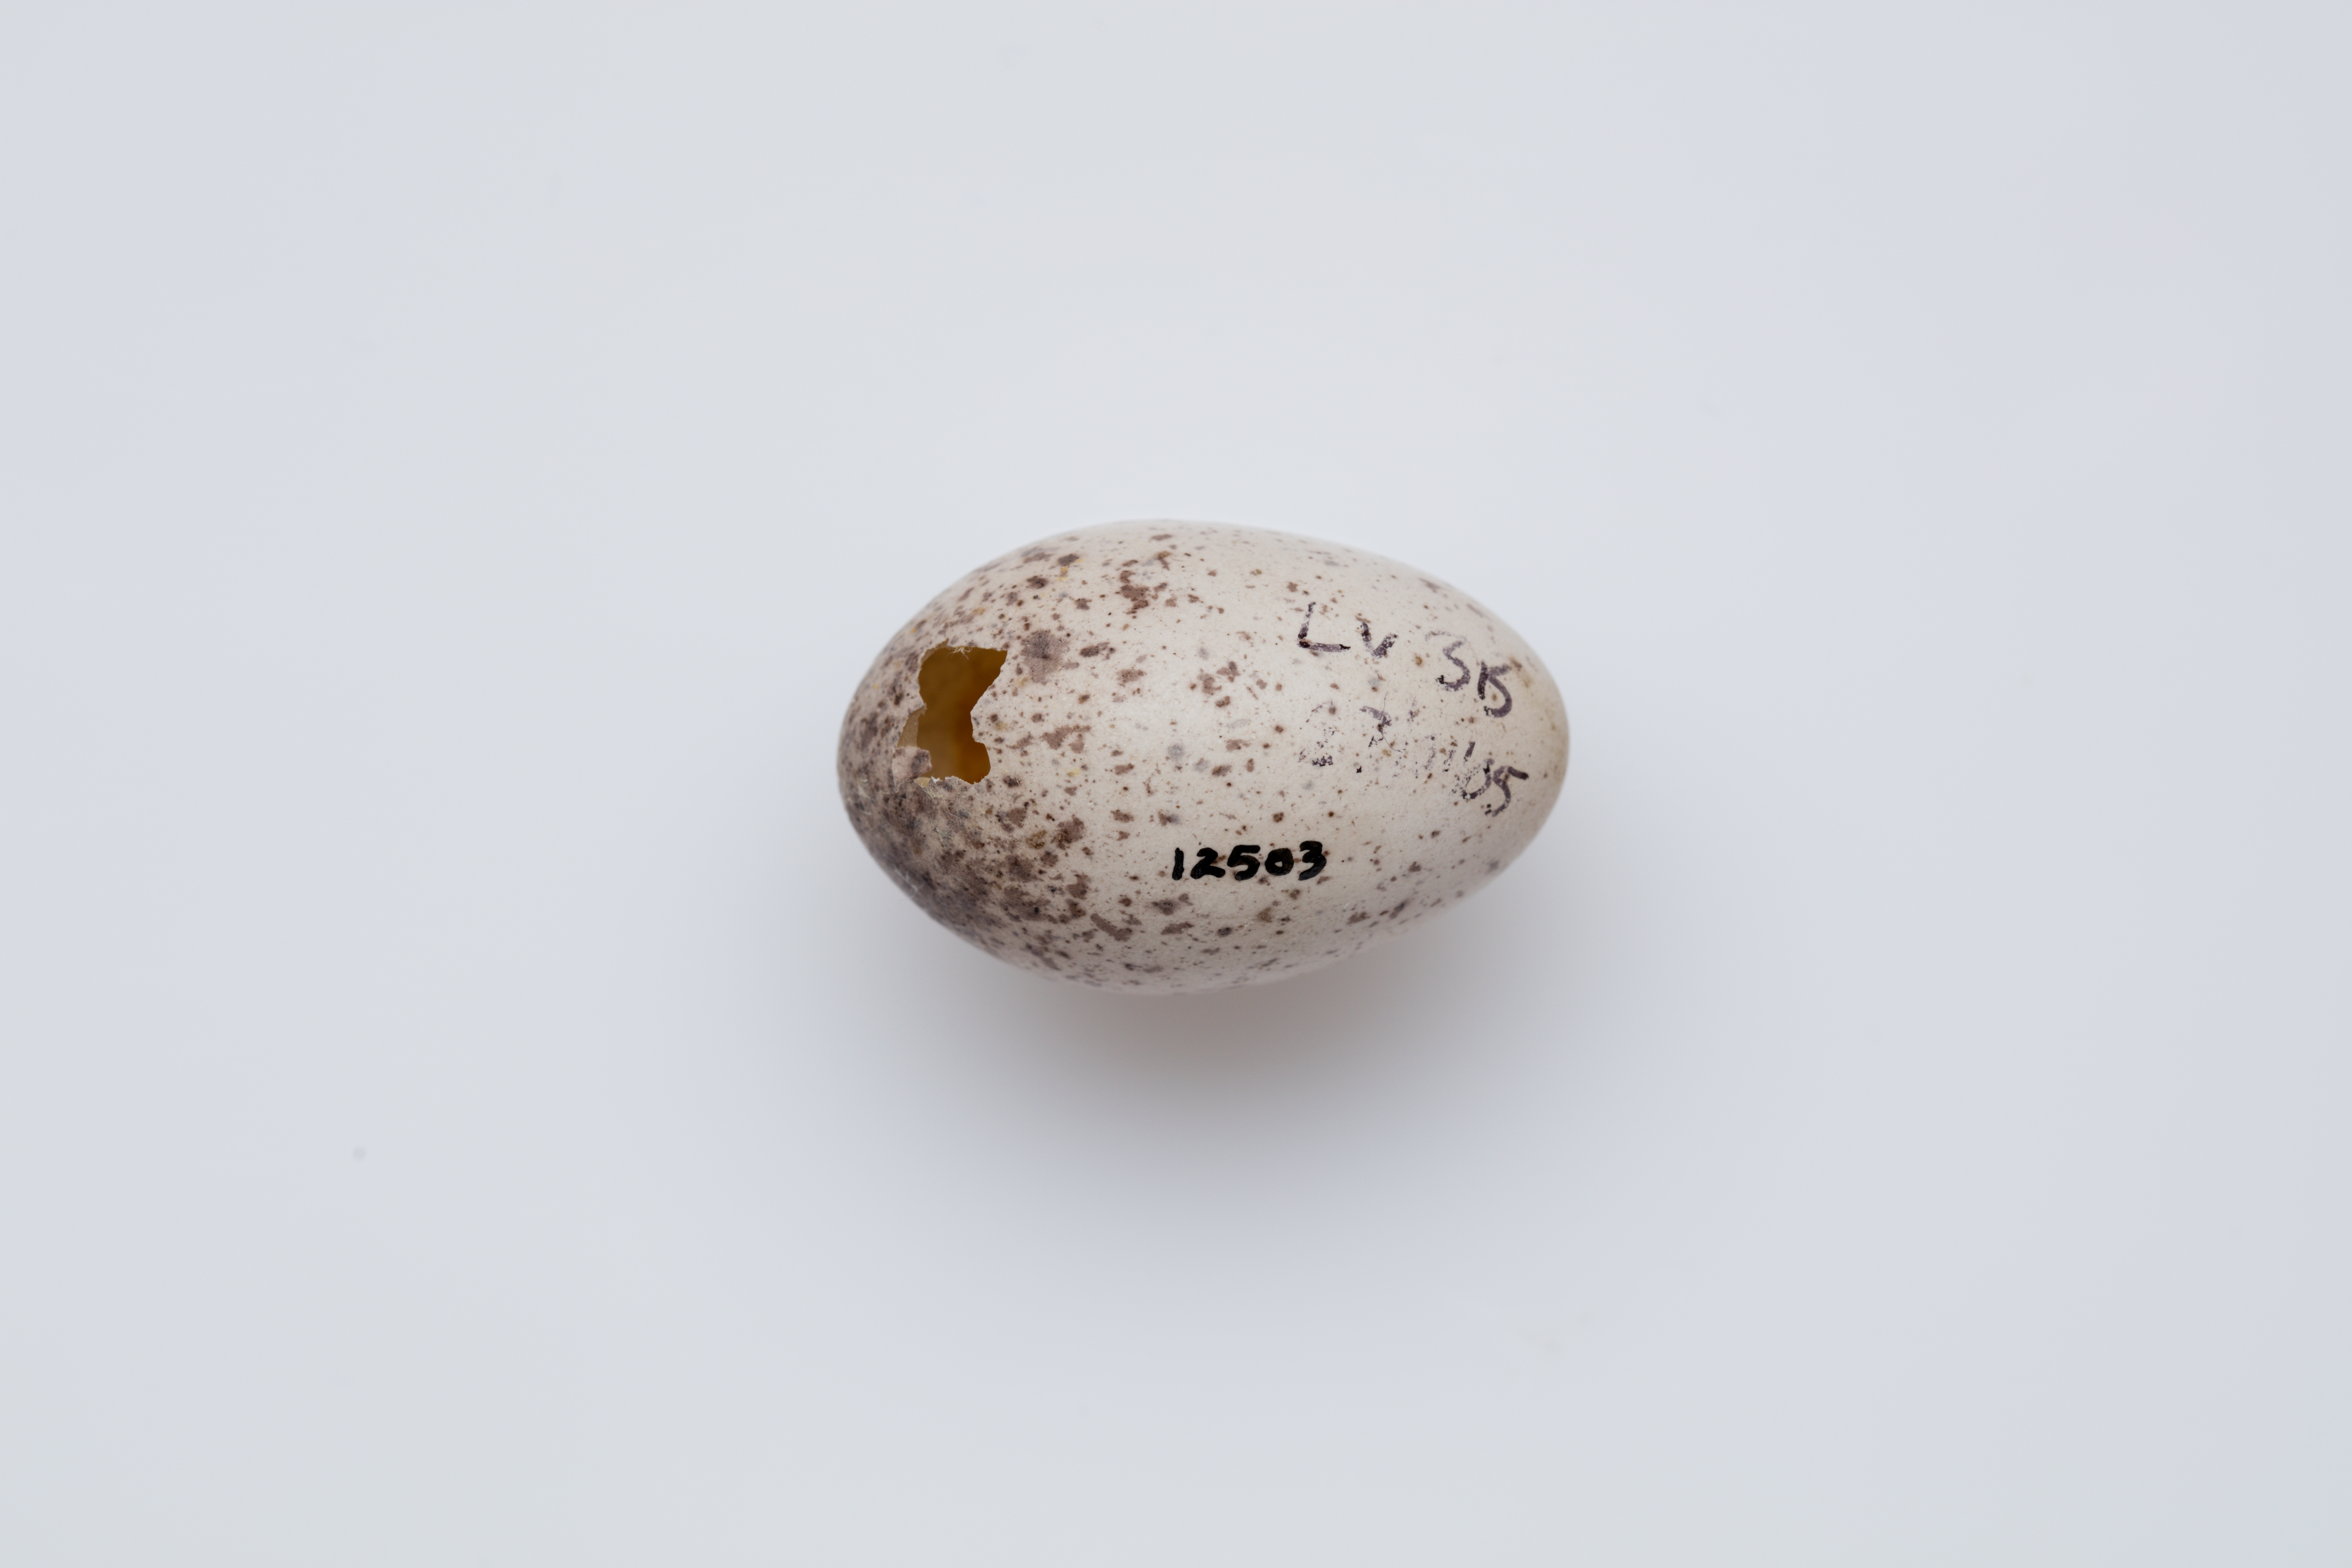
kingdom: Animalia
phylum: Chordata
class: Aves
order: Passeriformes
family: Callaeatidae
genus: Philesturnus
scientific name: Philesturnus carunculatus
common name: South island saddleback
